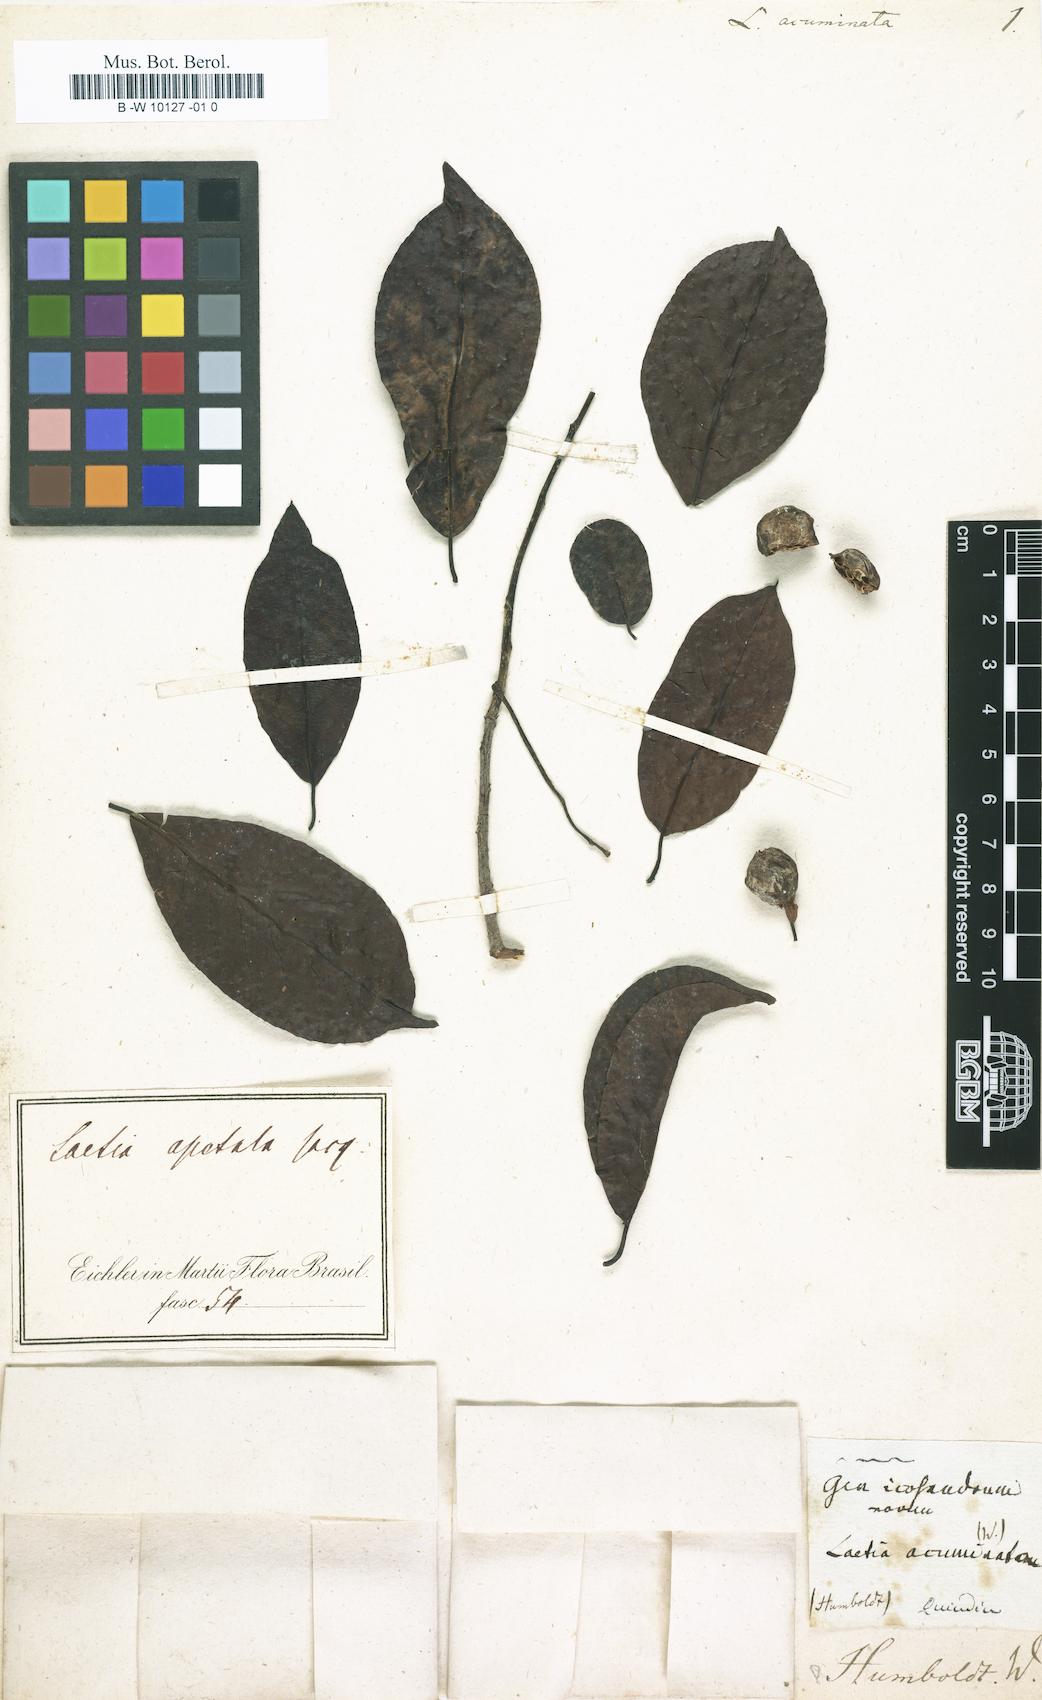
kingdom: Plantae
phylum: Tracheophyta
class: Magnoliopsida
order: Malpighiales
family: Salicaceae
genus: Casearia
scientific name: Casearia americana
